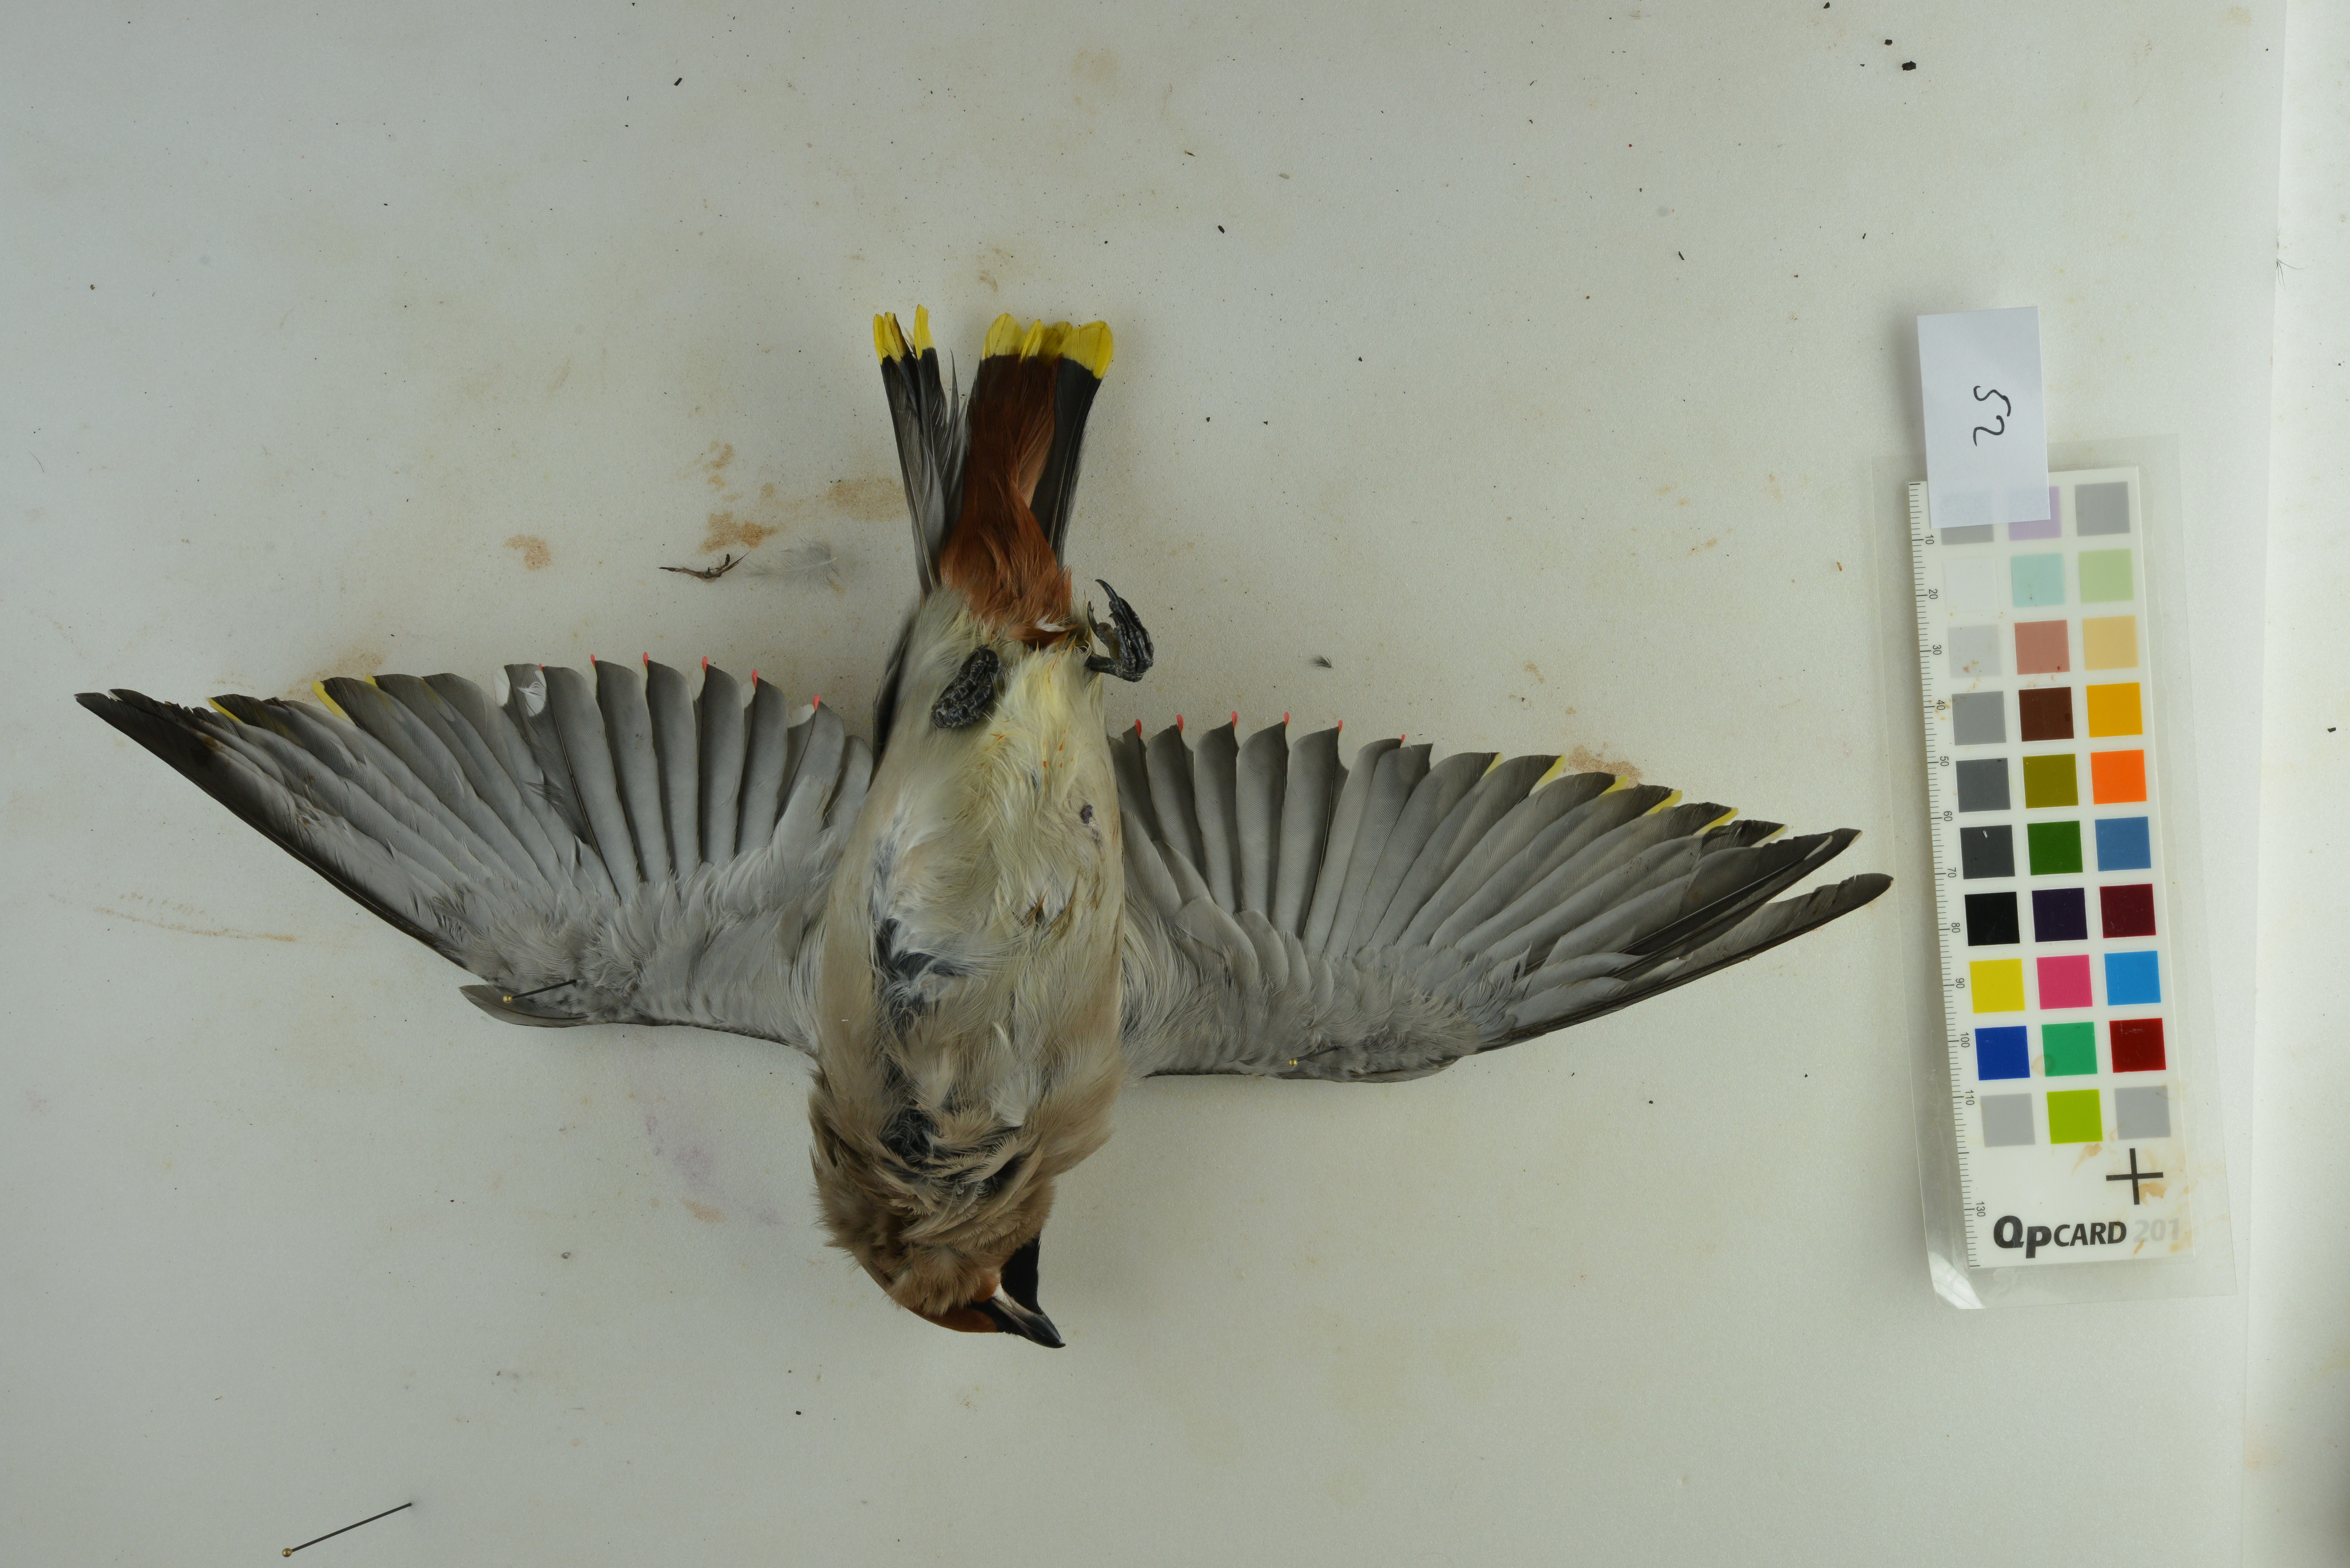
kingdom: Animalia
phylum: Chordata
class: Aves
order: Passeriformes
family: Bombycillidae
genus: Bombycilla
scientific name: Bombycilla garrulus
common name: Bohemian waxwing
